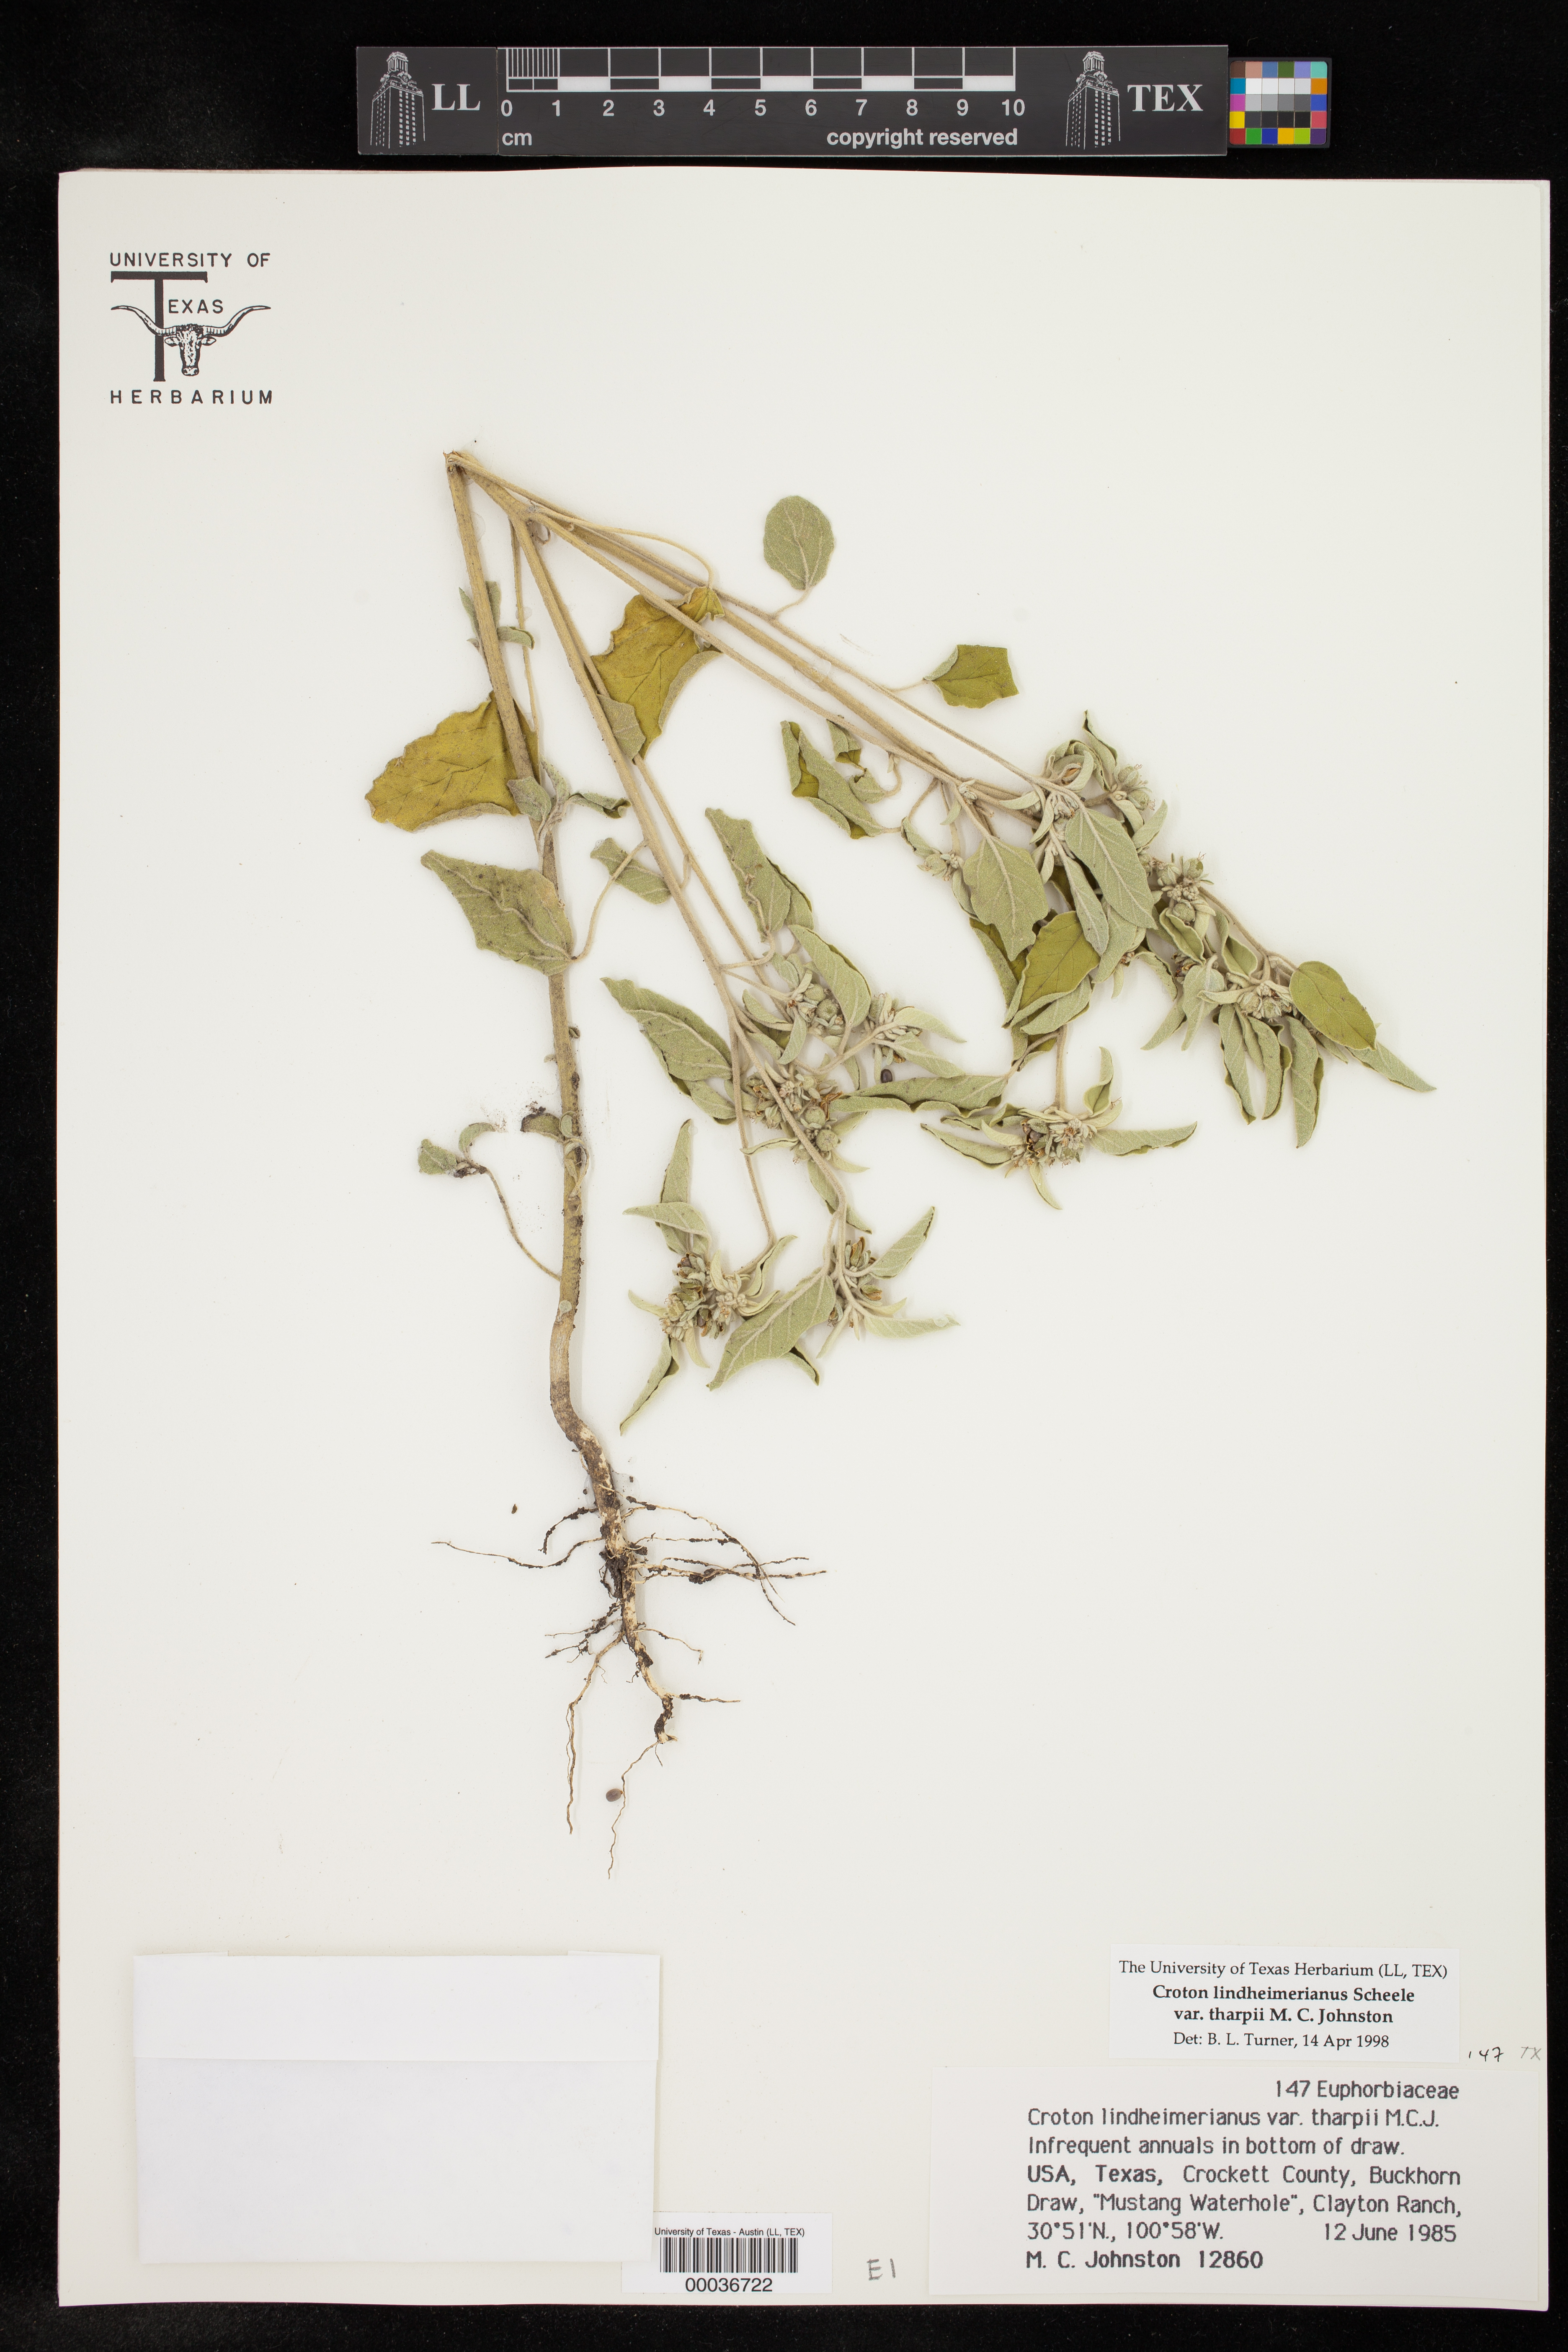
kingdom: Plantae
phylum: Tracheophyta
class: Magnoliopsida
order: Malpighiales
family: Euphorbiaceae
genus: Croton
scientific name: Croton lindheimerianus
